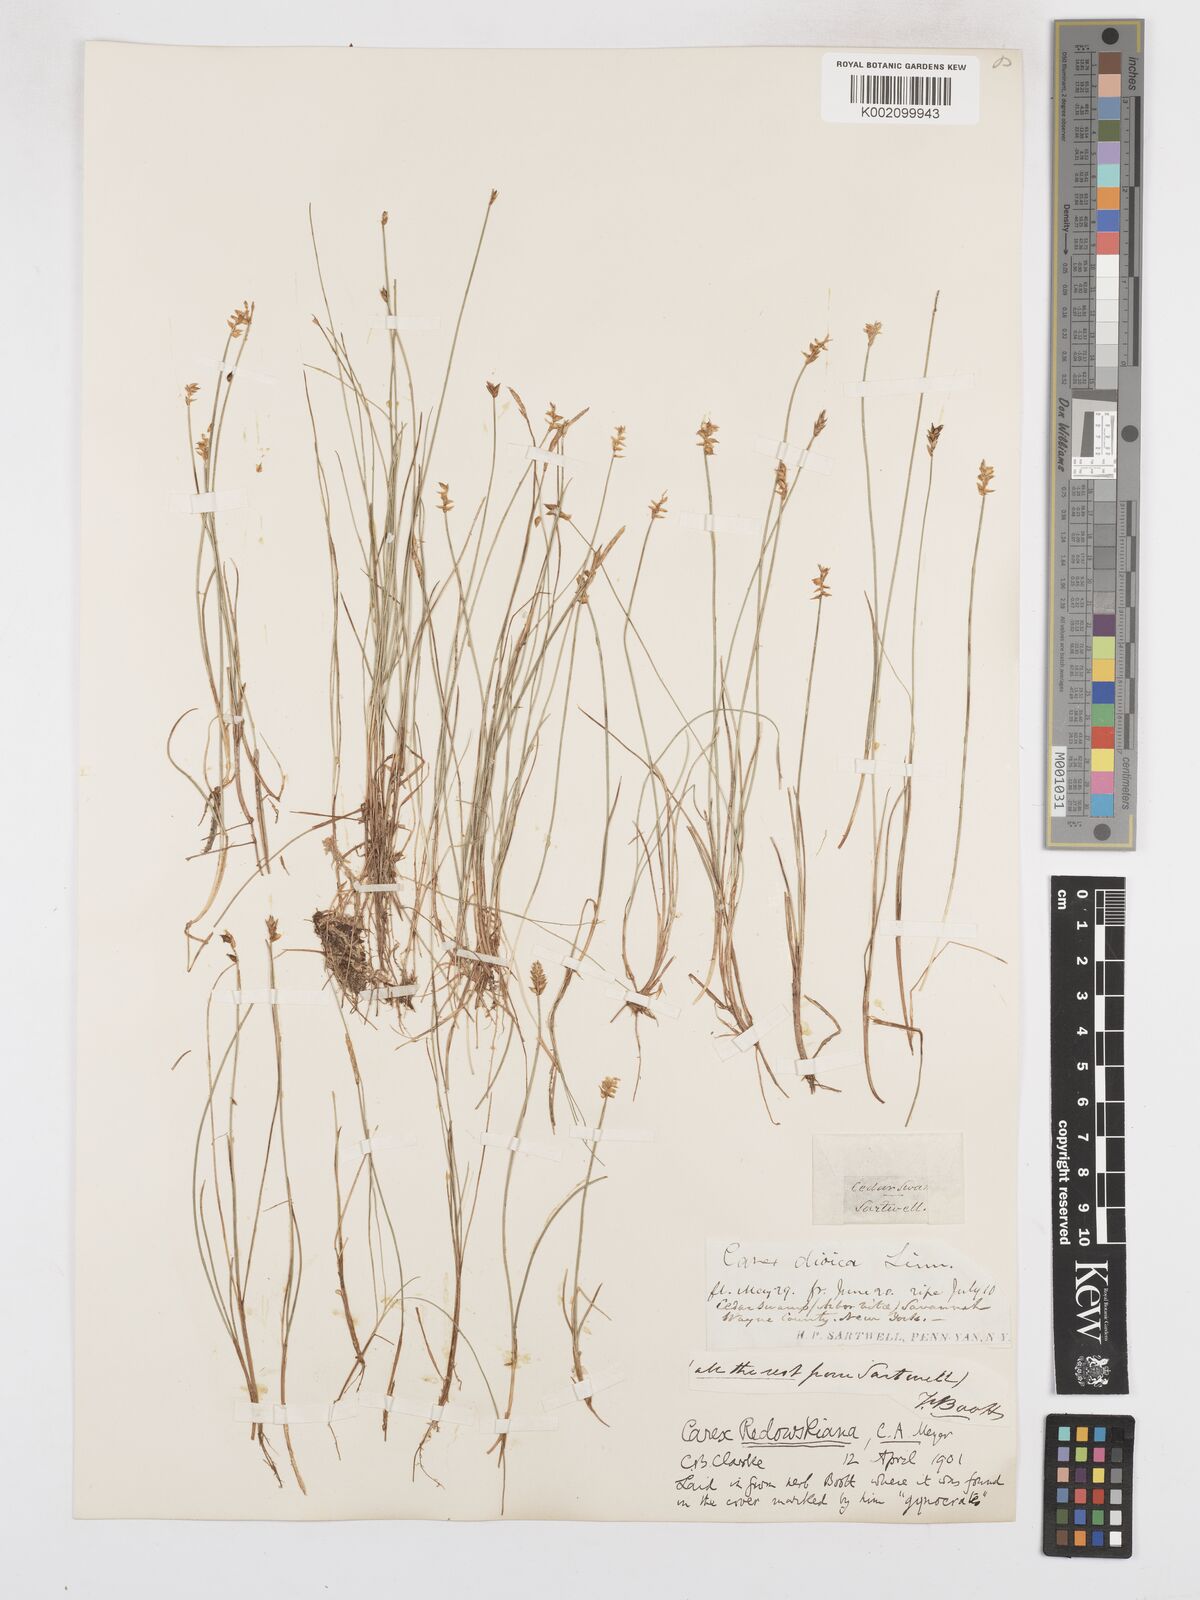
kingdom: Plantae
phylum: Tracheophyta
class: Liliopsida
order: Poales
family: Cyperaceae
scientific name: Cyperaceae
